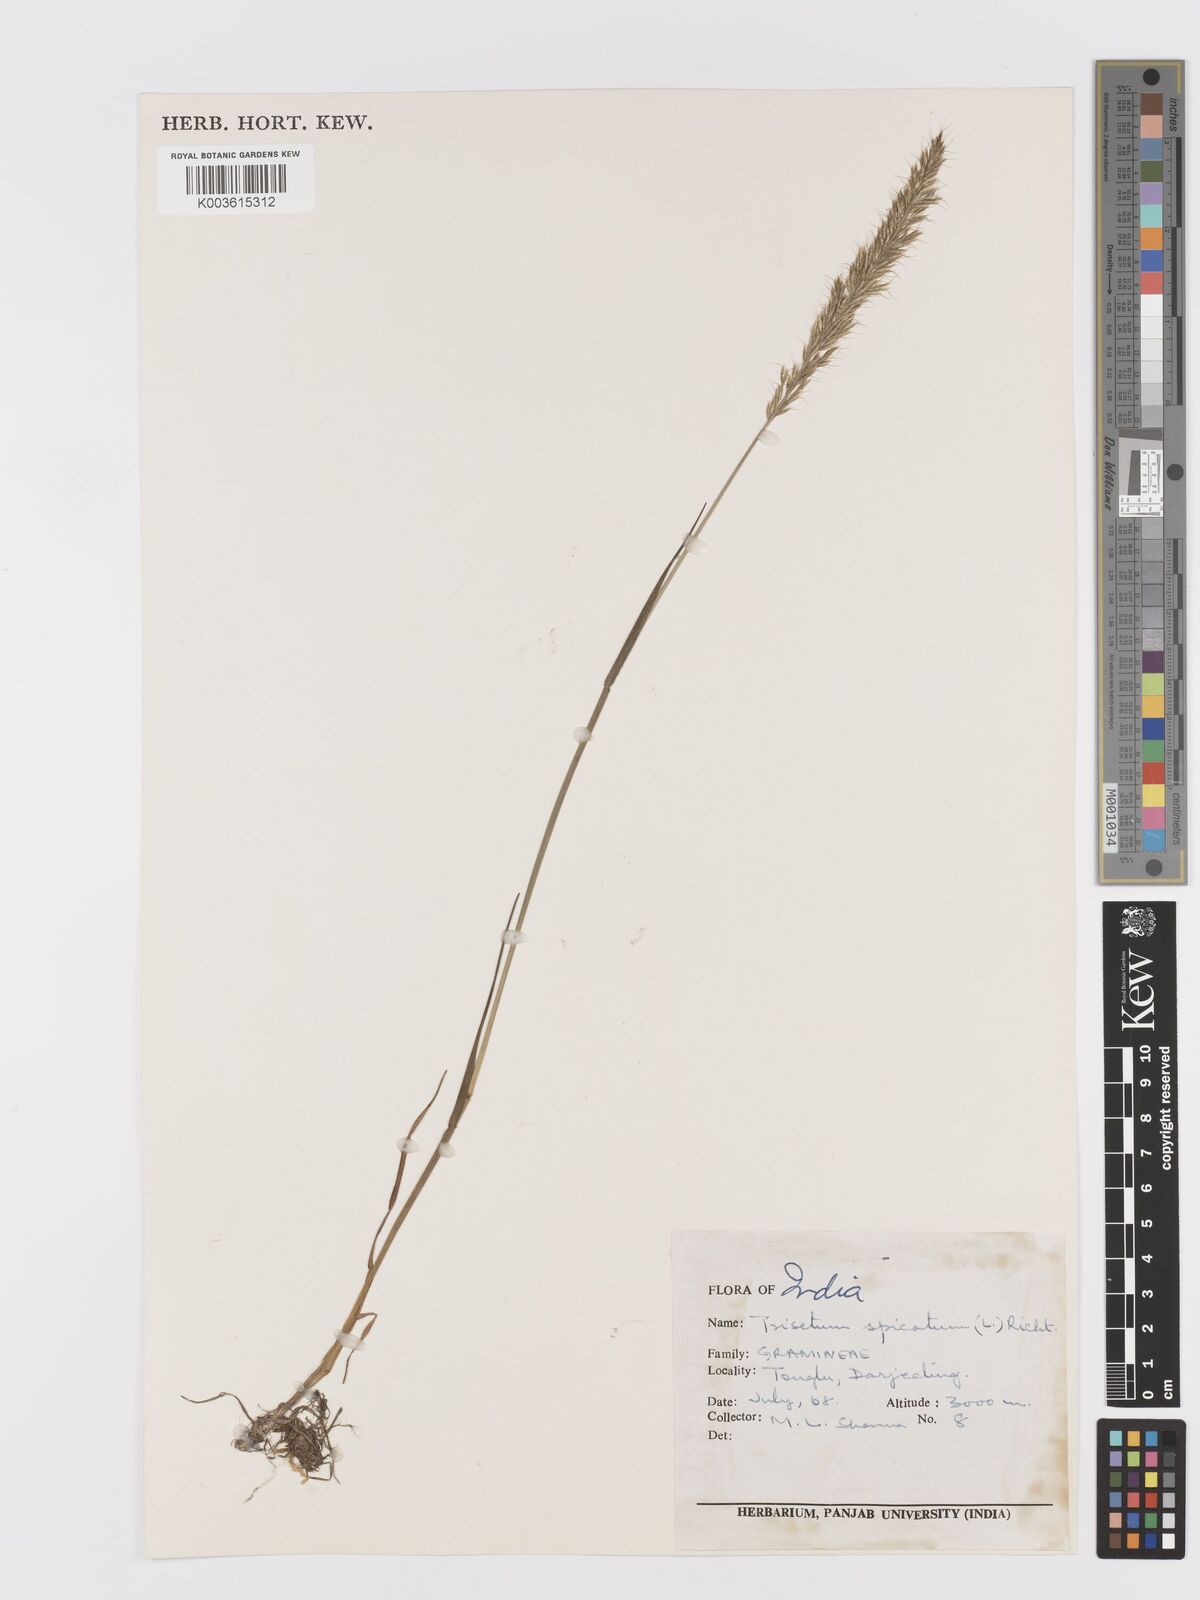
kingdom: Plantae
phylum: Tracheophyta
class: Liliopsida
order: Poales
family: Poaceae
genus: Koeleria
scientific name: Koeleria spicata
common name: Mountain trisetum
